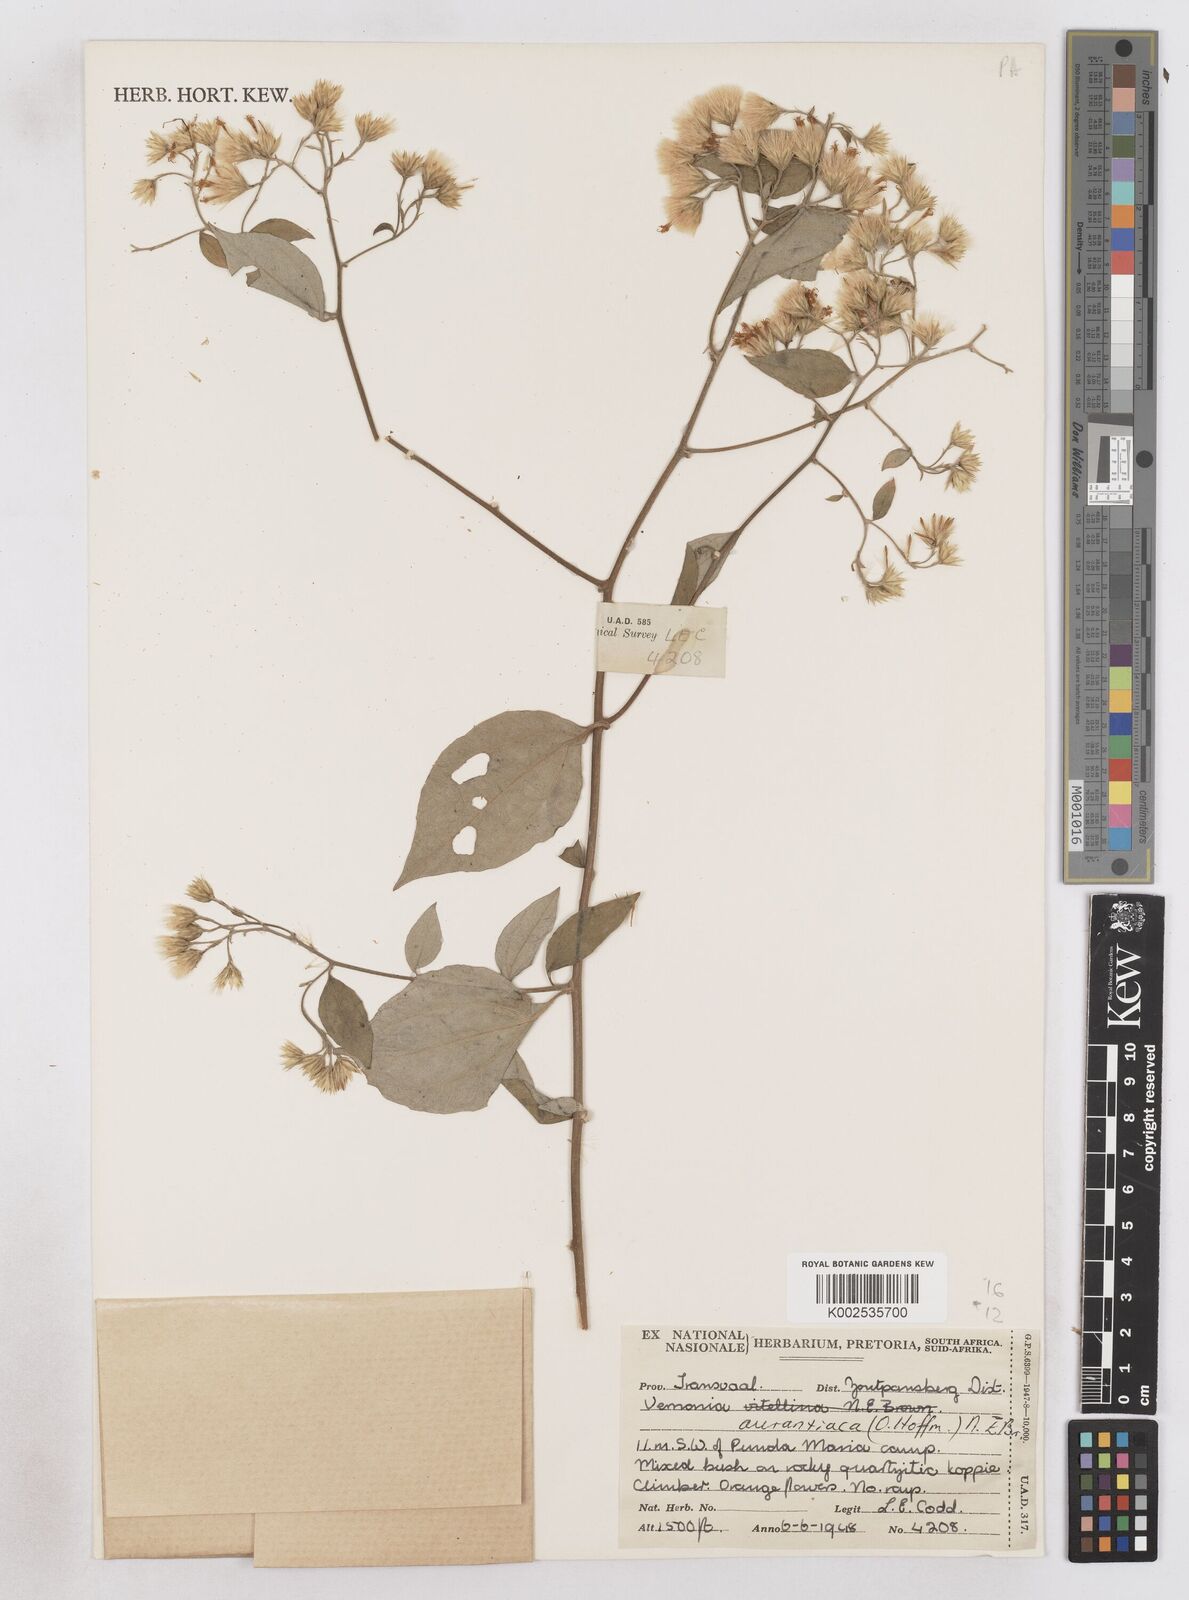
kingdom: Plantae
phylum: Tracheophyta
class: Magnoliopsida
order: Asterales
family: Asteraceae
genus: Distephanus
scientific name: Distephanus
